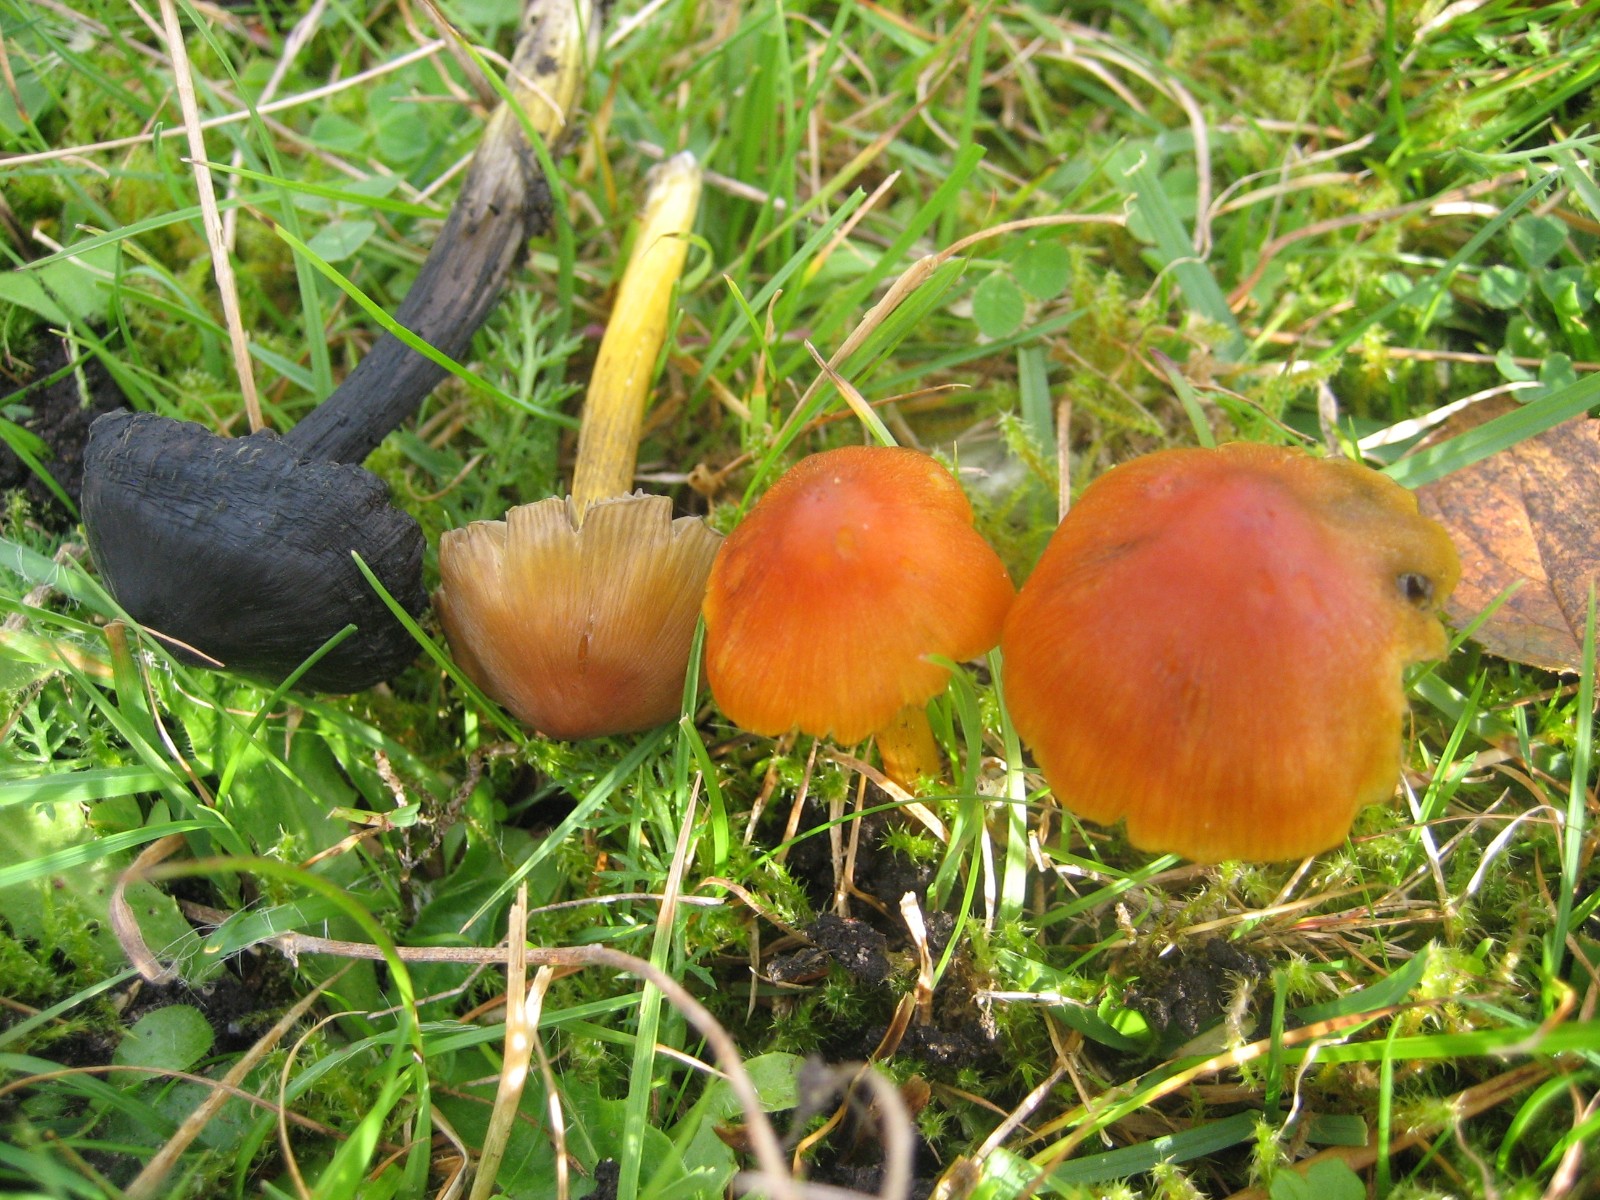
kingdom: Fungi
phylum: Basidiomycota
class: Agaricomycetes
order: Agaricales
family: Hygrophoraceae
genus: Hygrocybe
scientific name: Hygrocybe conica
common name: kegle-vokshat
